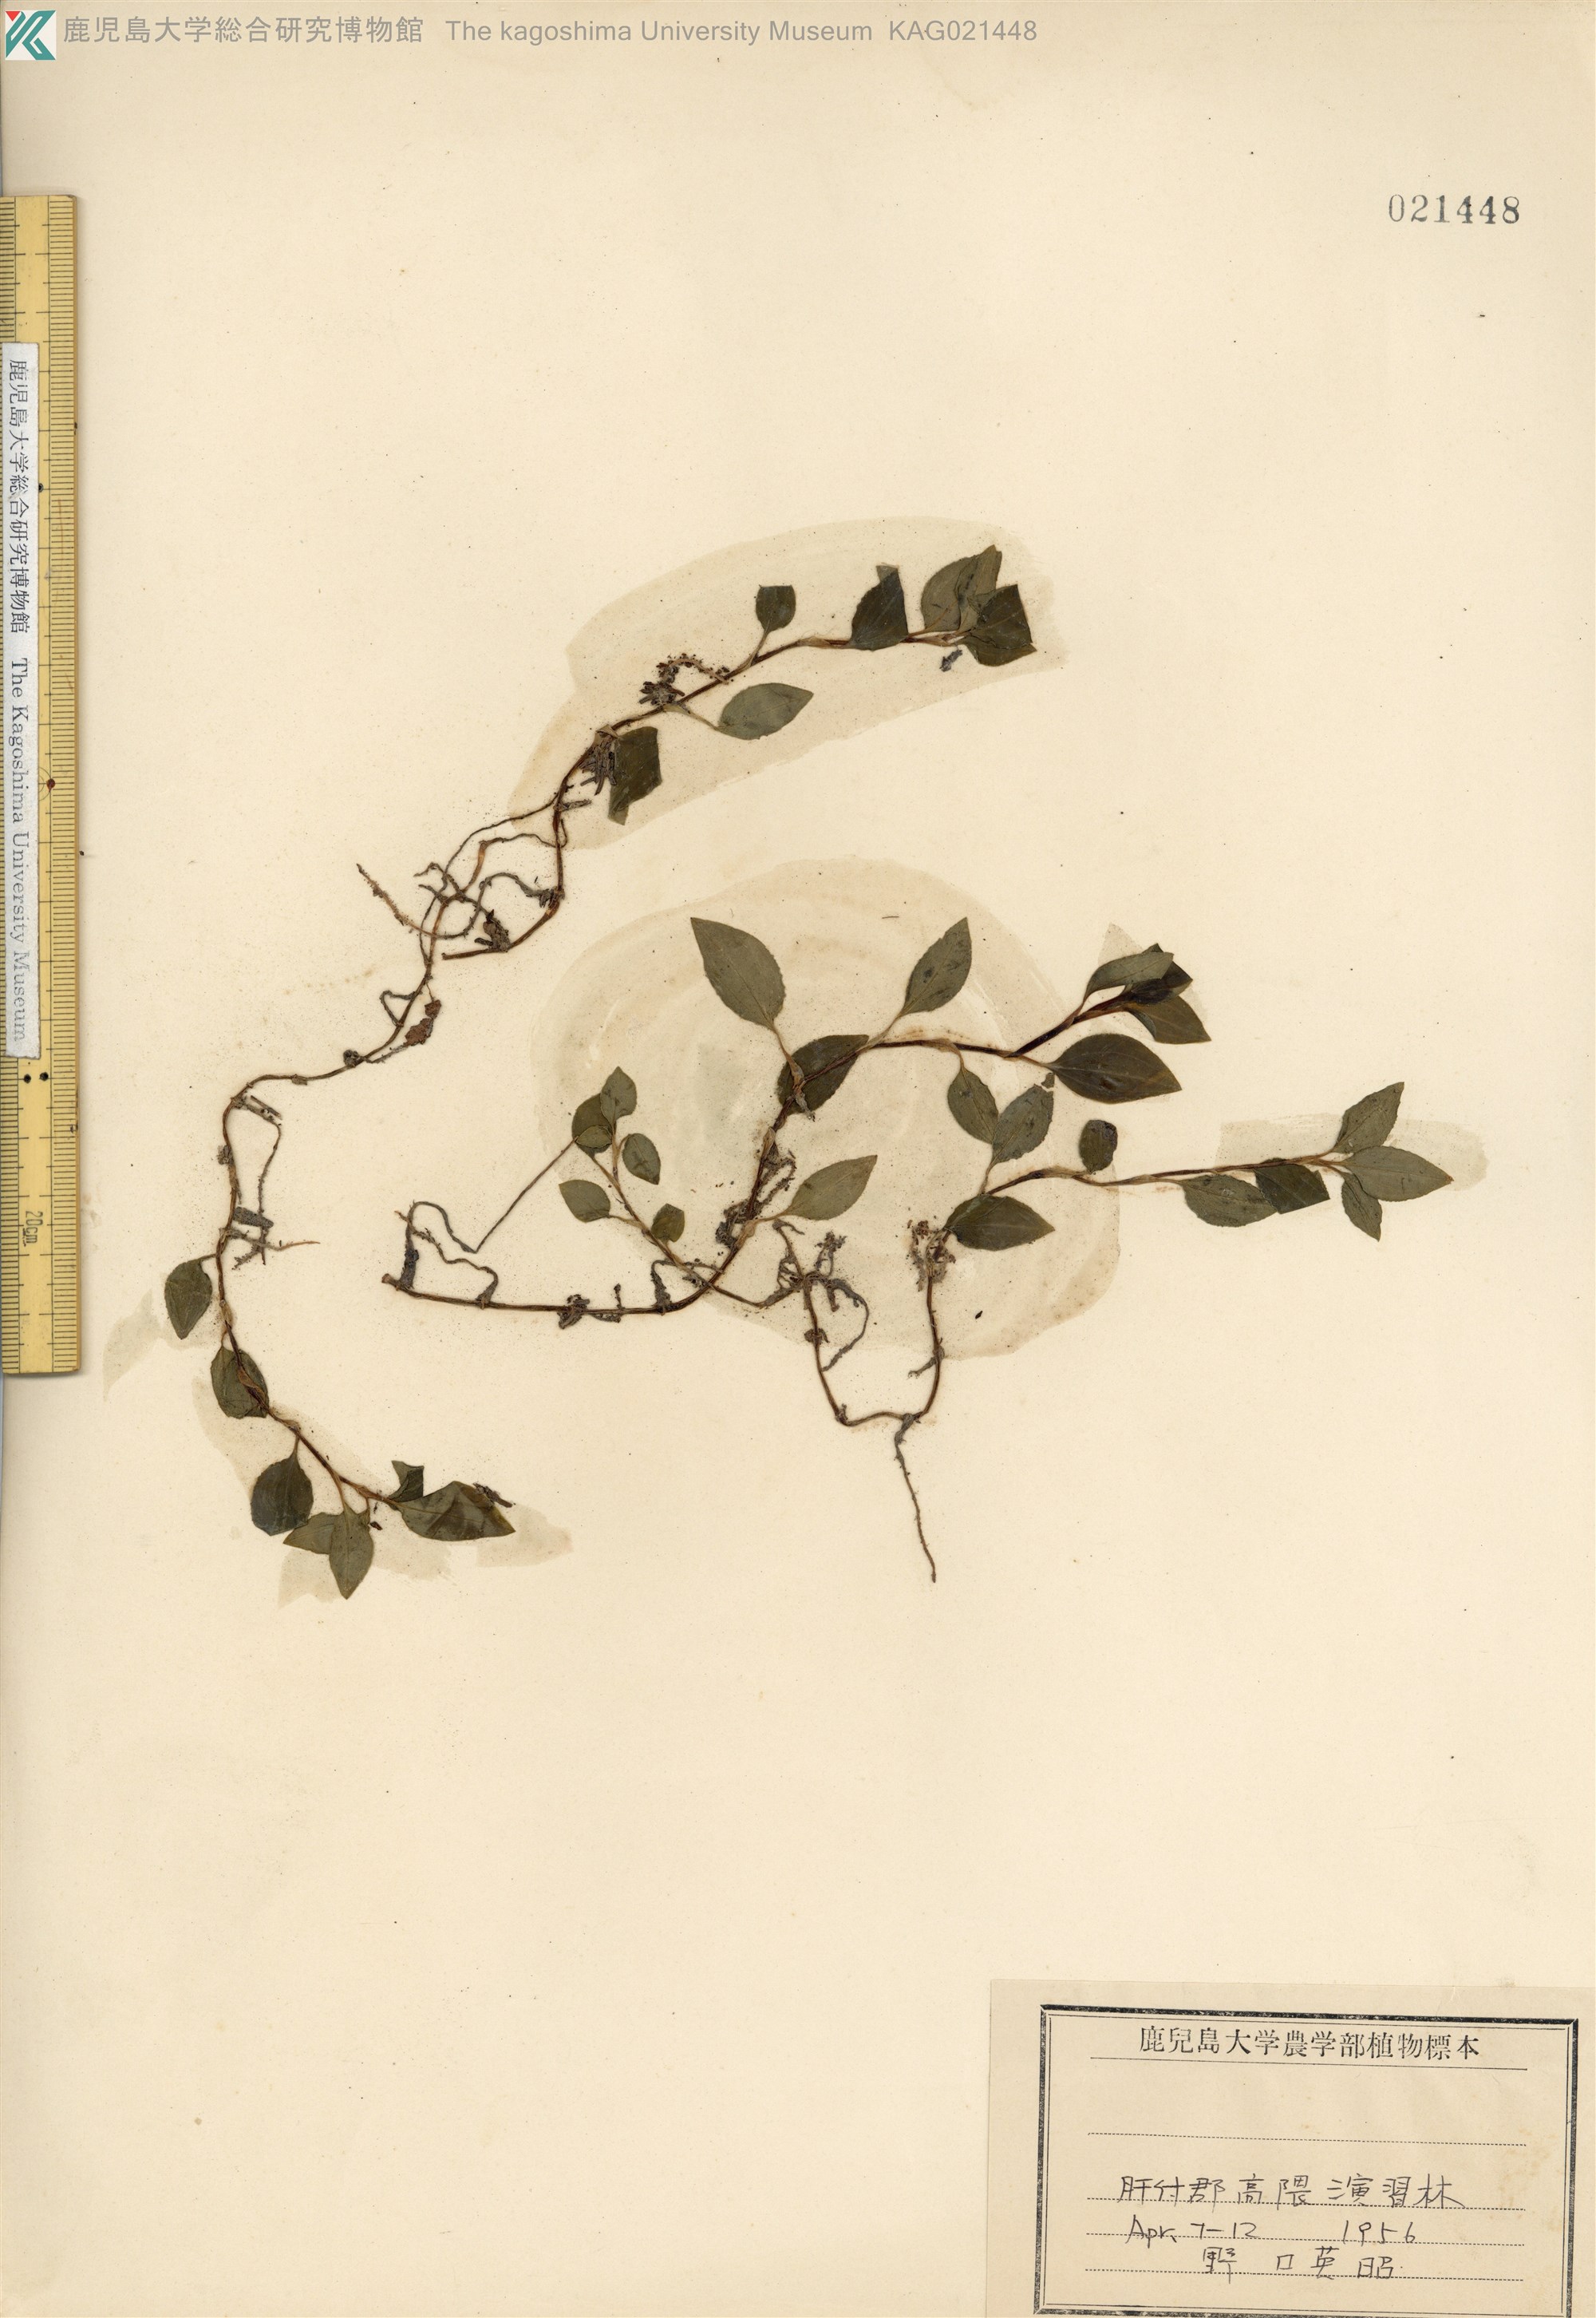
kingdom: Plantae
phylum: Tracheophyta
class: Liliopsida
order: Asparagales
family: Orchidaceae
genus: Goodyera
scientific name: Goodyera henryi
